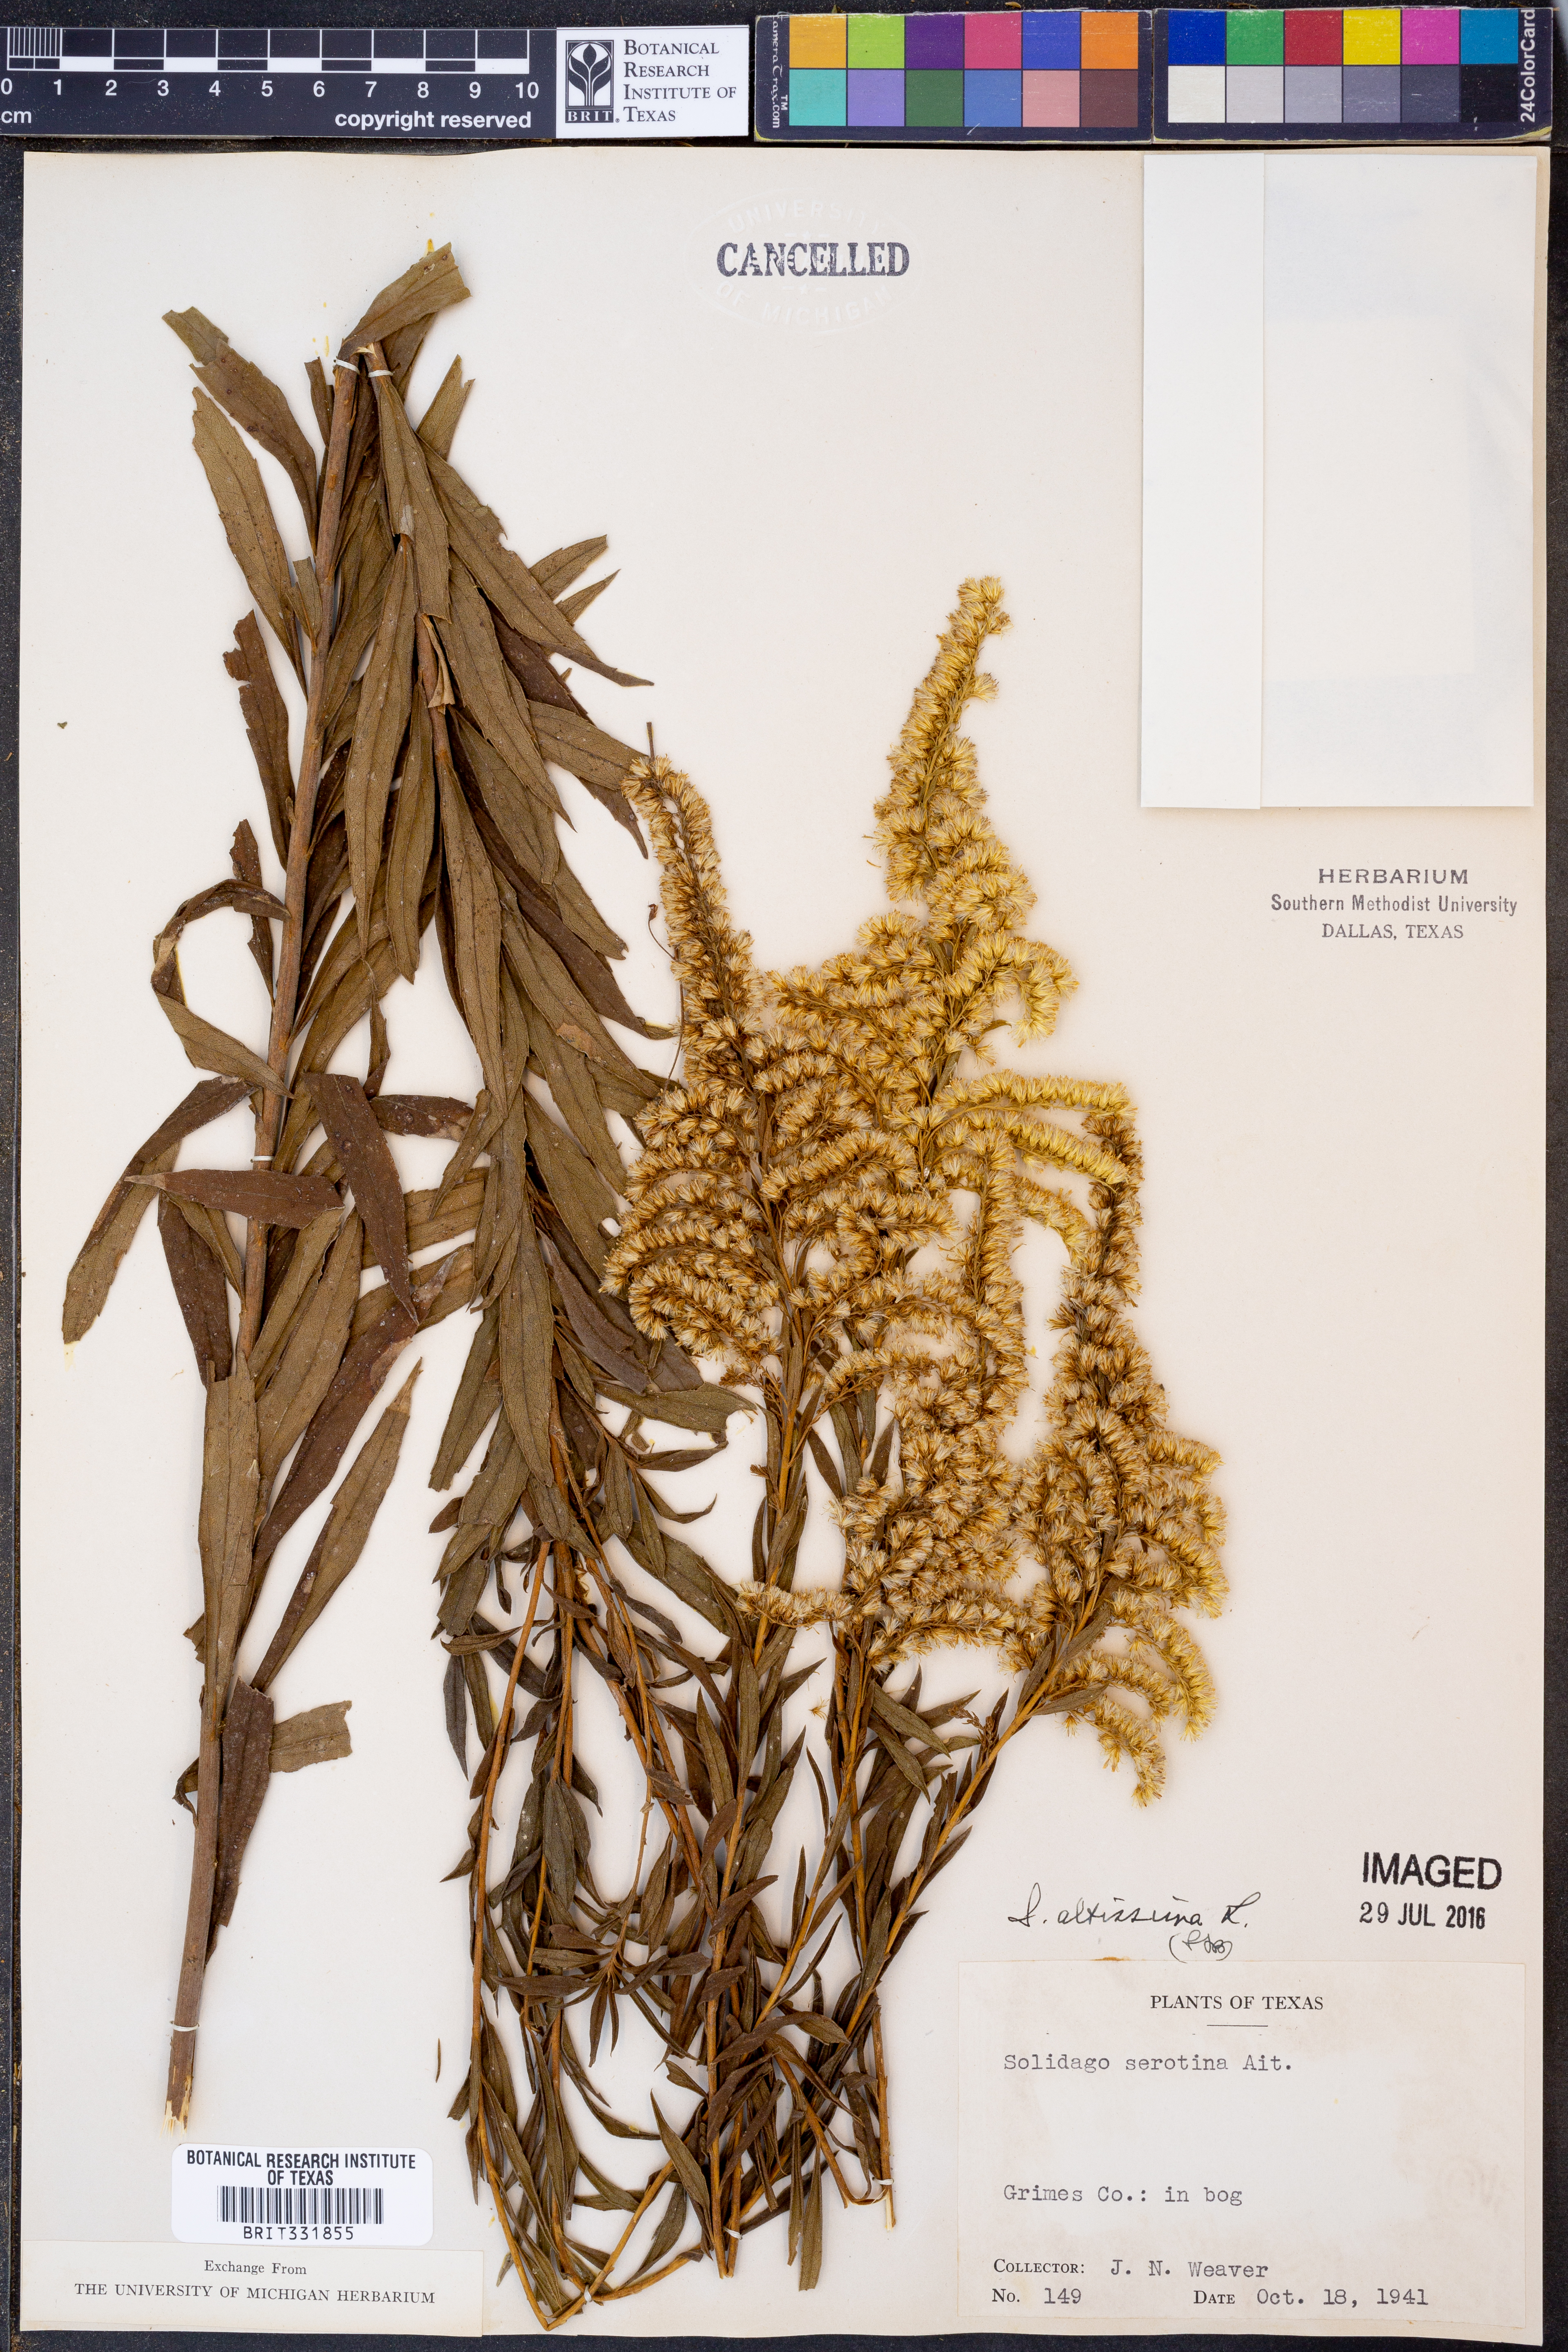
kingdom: Plantae
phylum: Tracheophyta
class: Magnoliopsida
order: Asterales
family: Asteraceae
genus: Solidago
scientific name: Solidago altissima
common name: Late goldenrod
